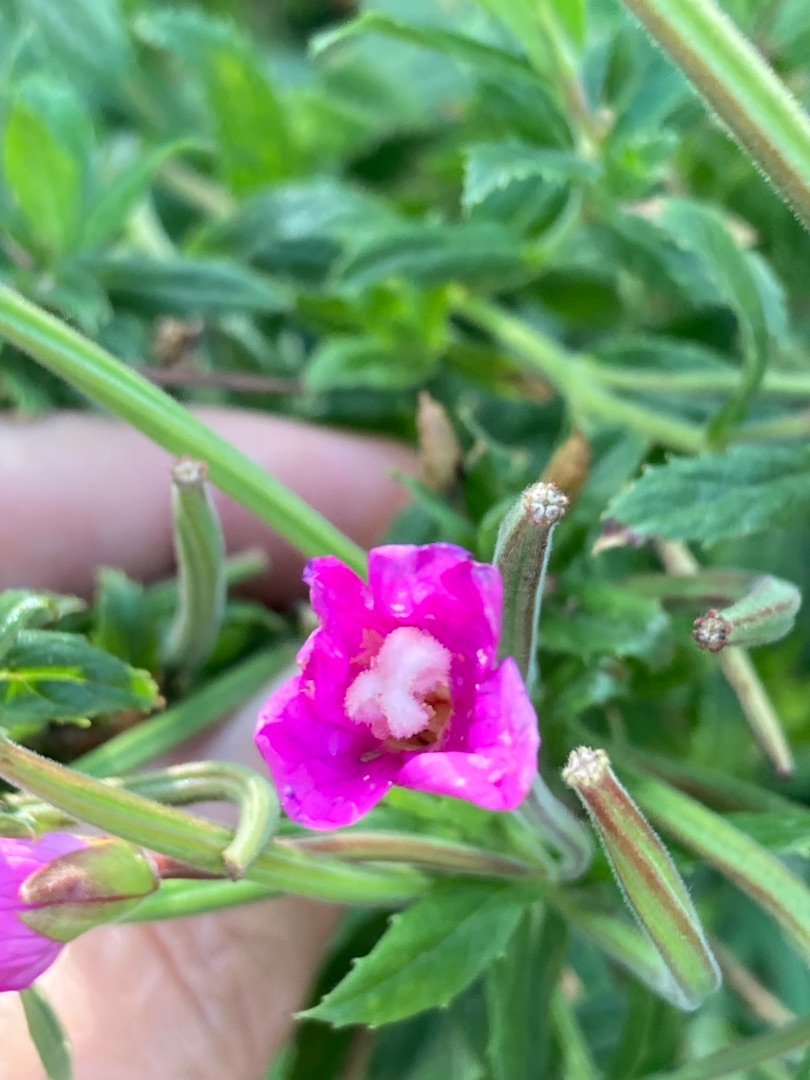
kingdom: Plantae
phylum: Tracheophyta
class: Magnoliopsida
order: Myrtales
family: Onagraceae
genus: Epilobium
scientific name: Epilobium hirsutum
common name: Lådden dueurt
